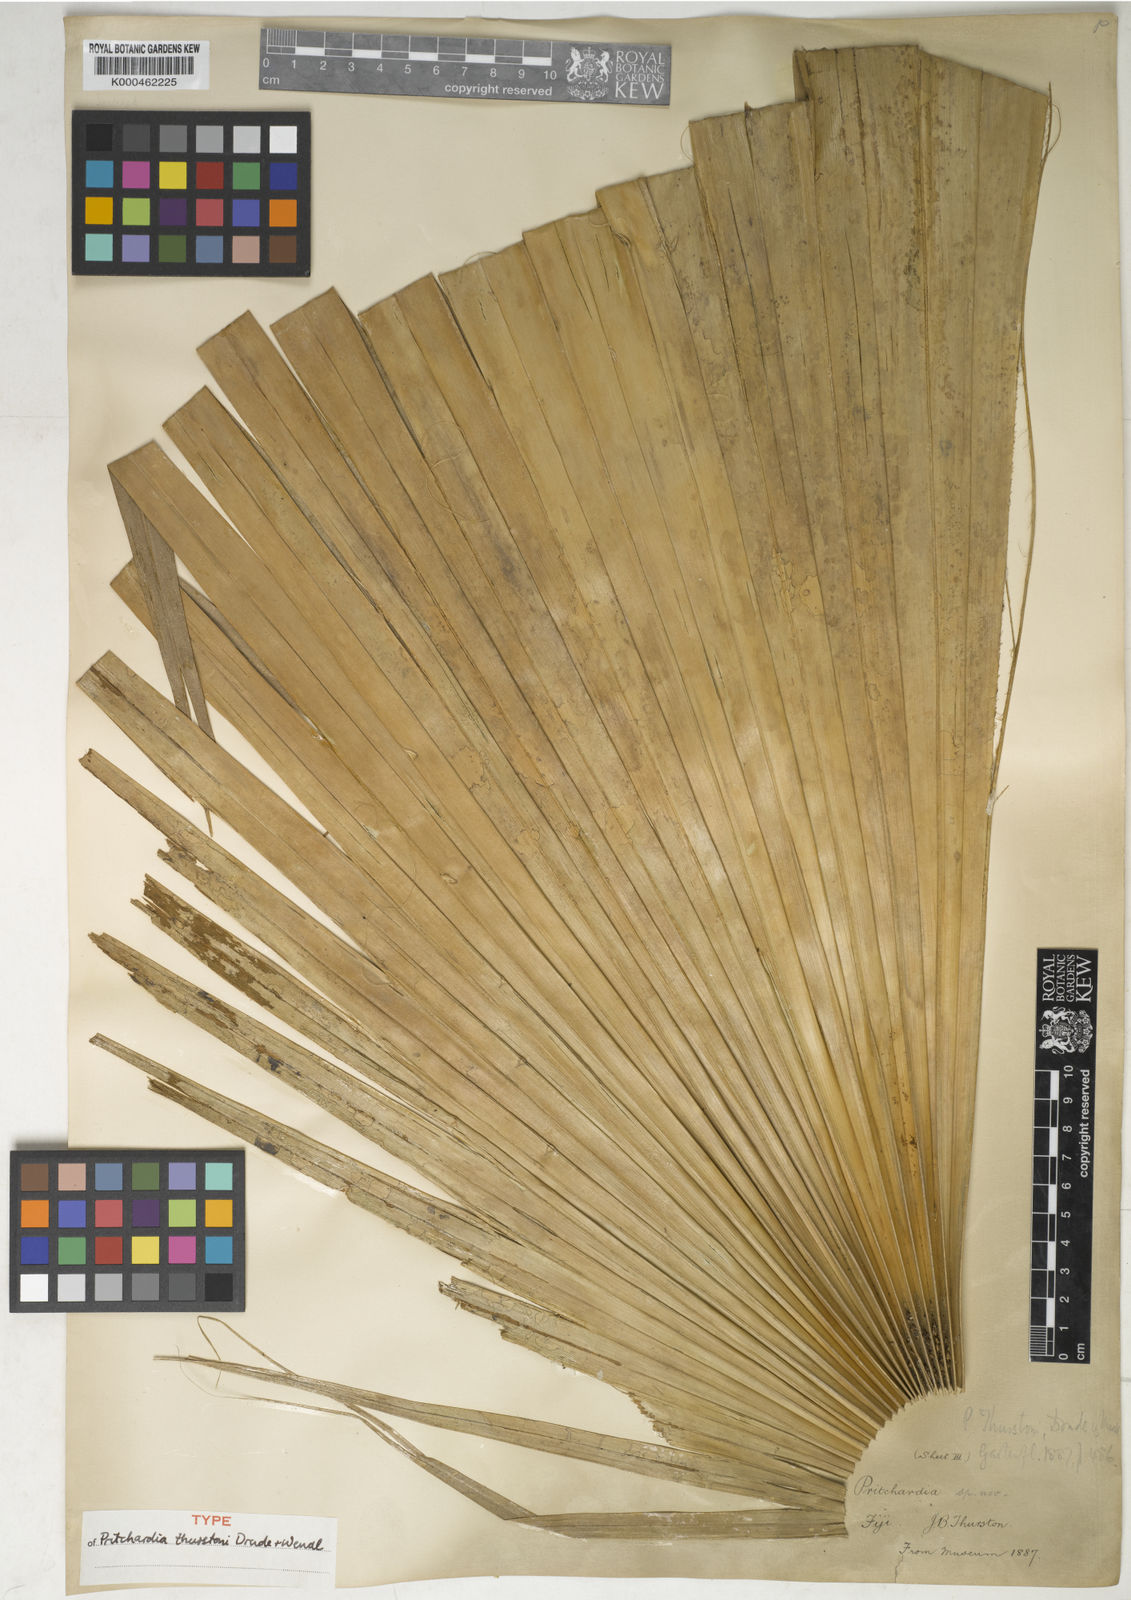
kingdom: Plantae
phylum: Tracheophyta
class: Liliopsida
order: Arecales
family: Arecaceae
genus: Pritchardia
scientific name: Pritchardia thurstonii
